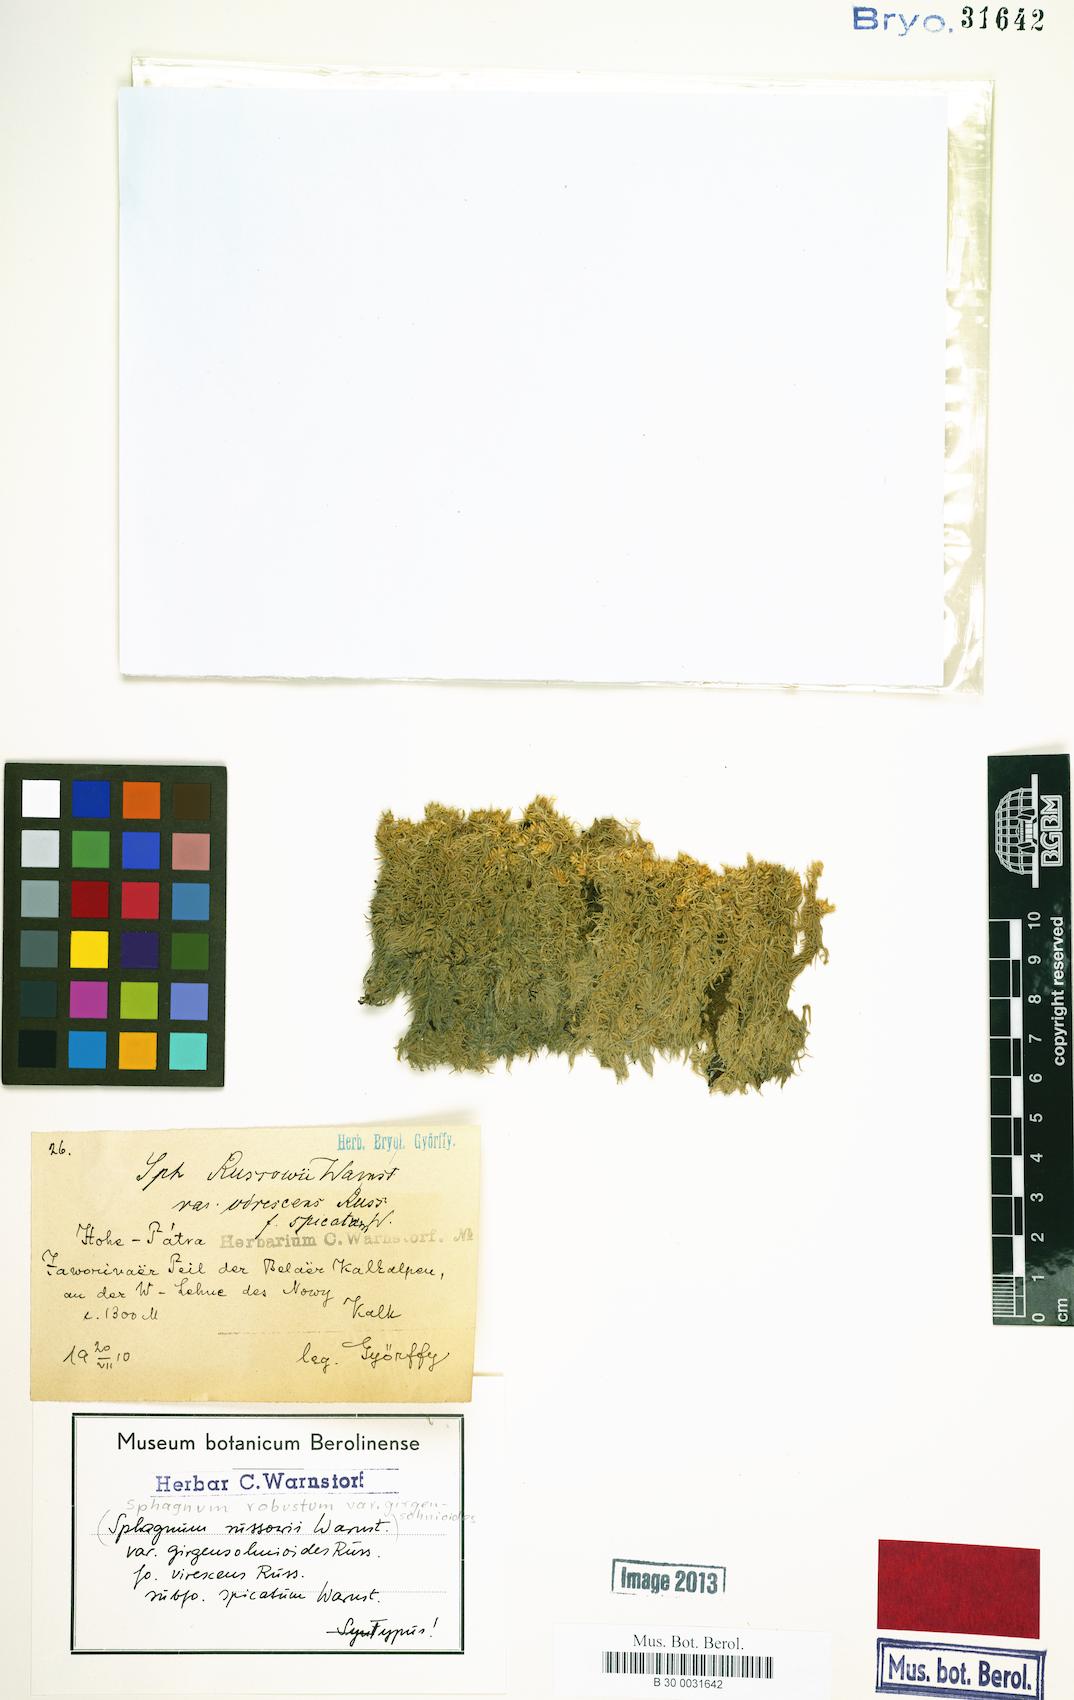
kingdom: Plantae
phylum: Bryophyta
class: Sphagnopsida
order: Sphagnales
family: Sphagnaceae
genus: Sphagnum
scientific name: Sphagnum russowii
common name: Russow's peat moss
